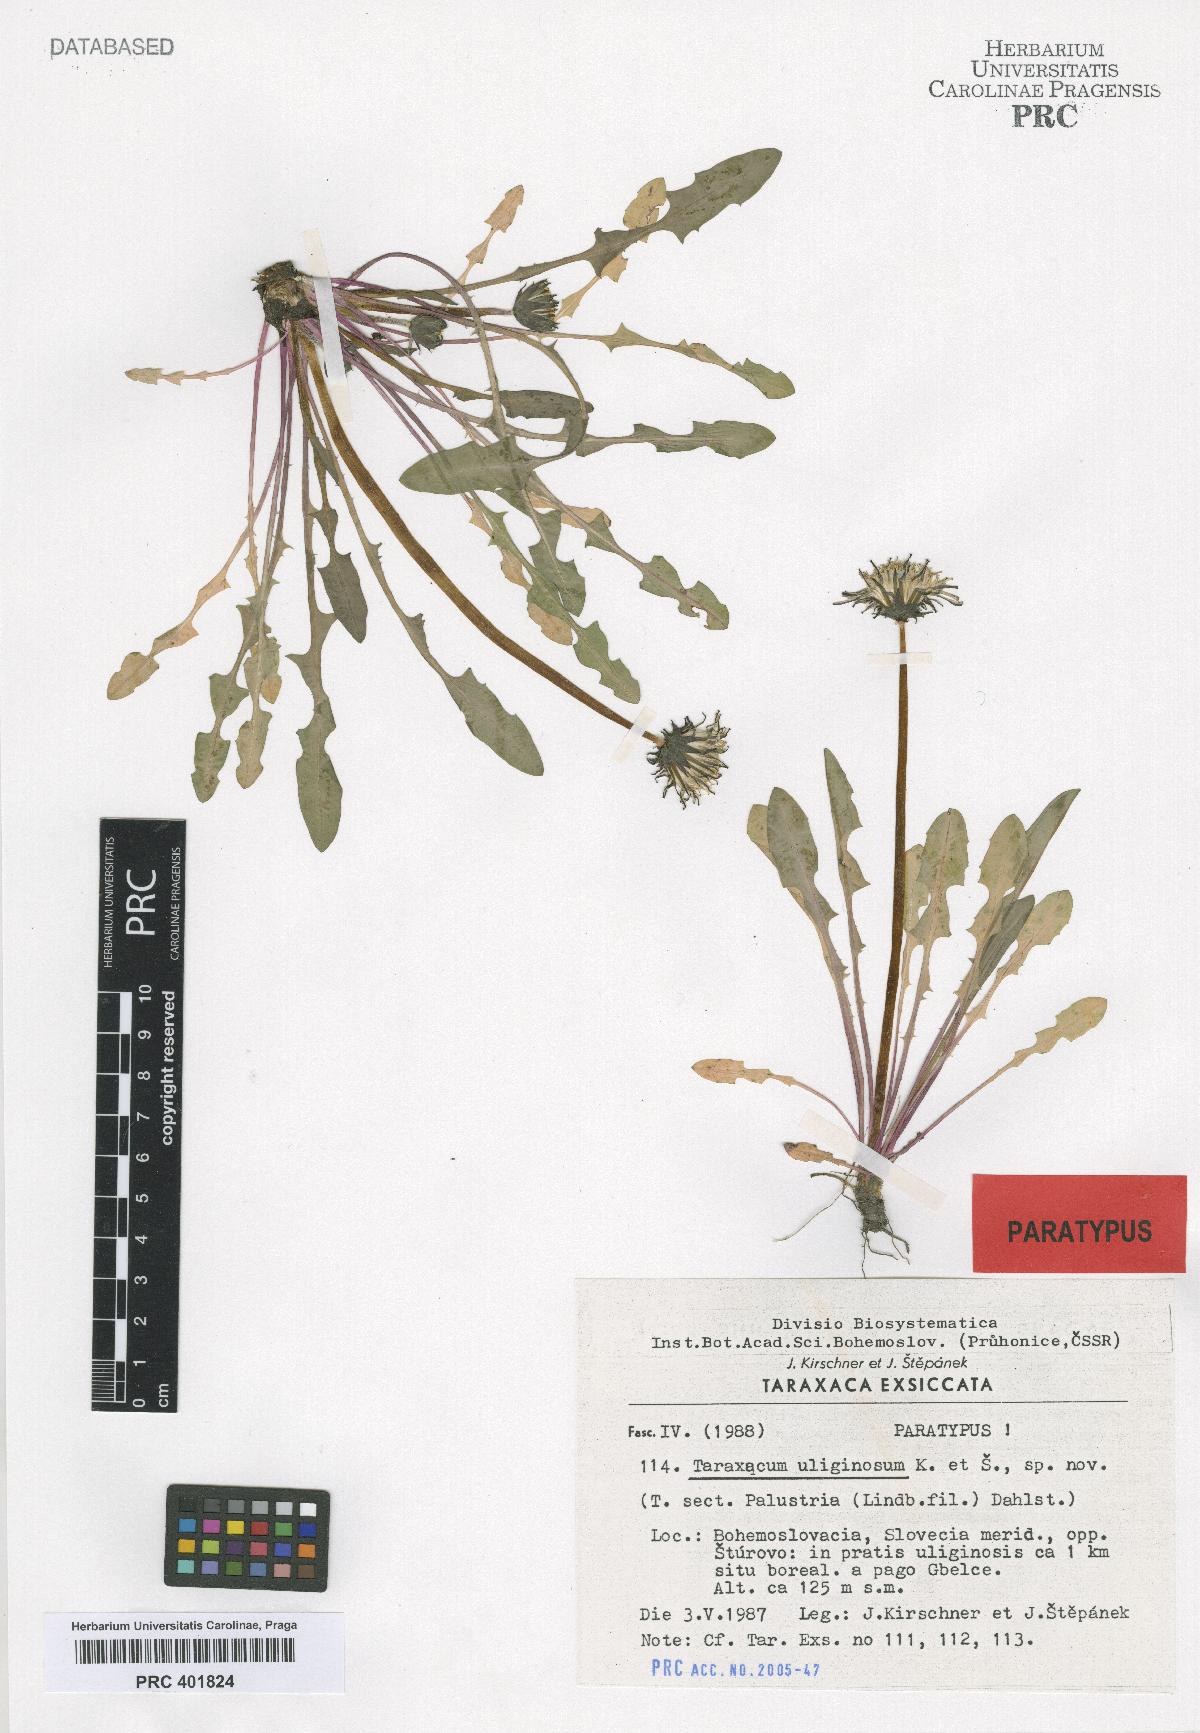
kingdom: Plantae
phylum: Tracheophyta
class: Magnoliopsida
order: Asterales
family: Asteraceae
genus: Taraxacum
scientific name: Taraxacum uliginosum
